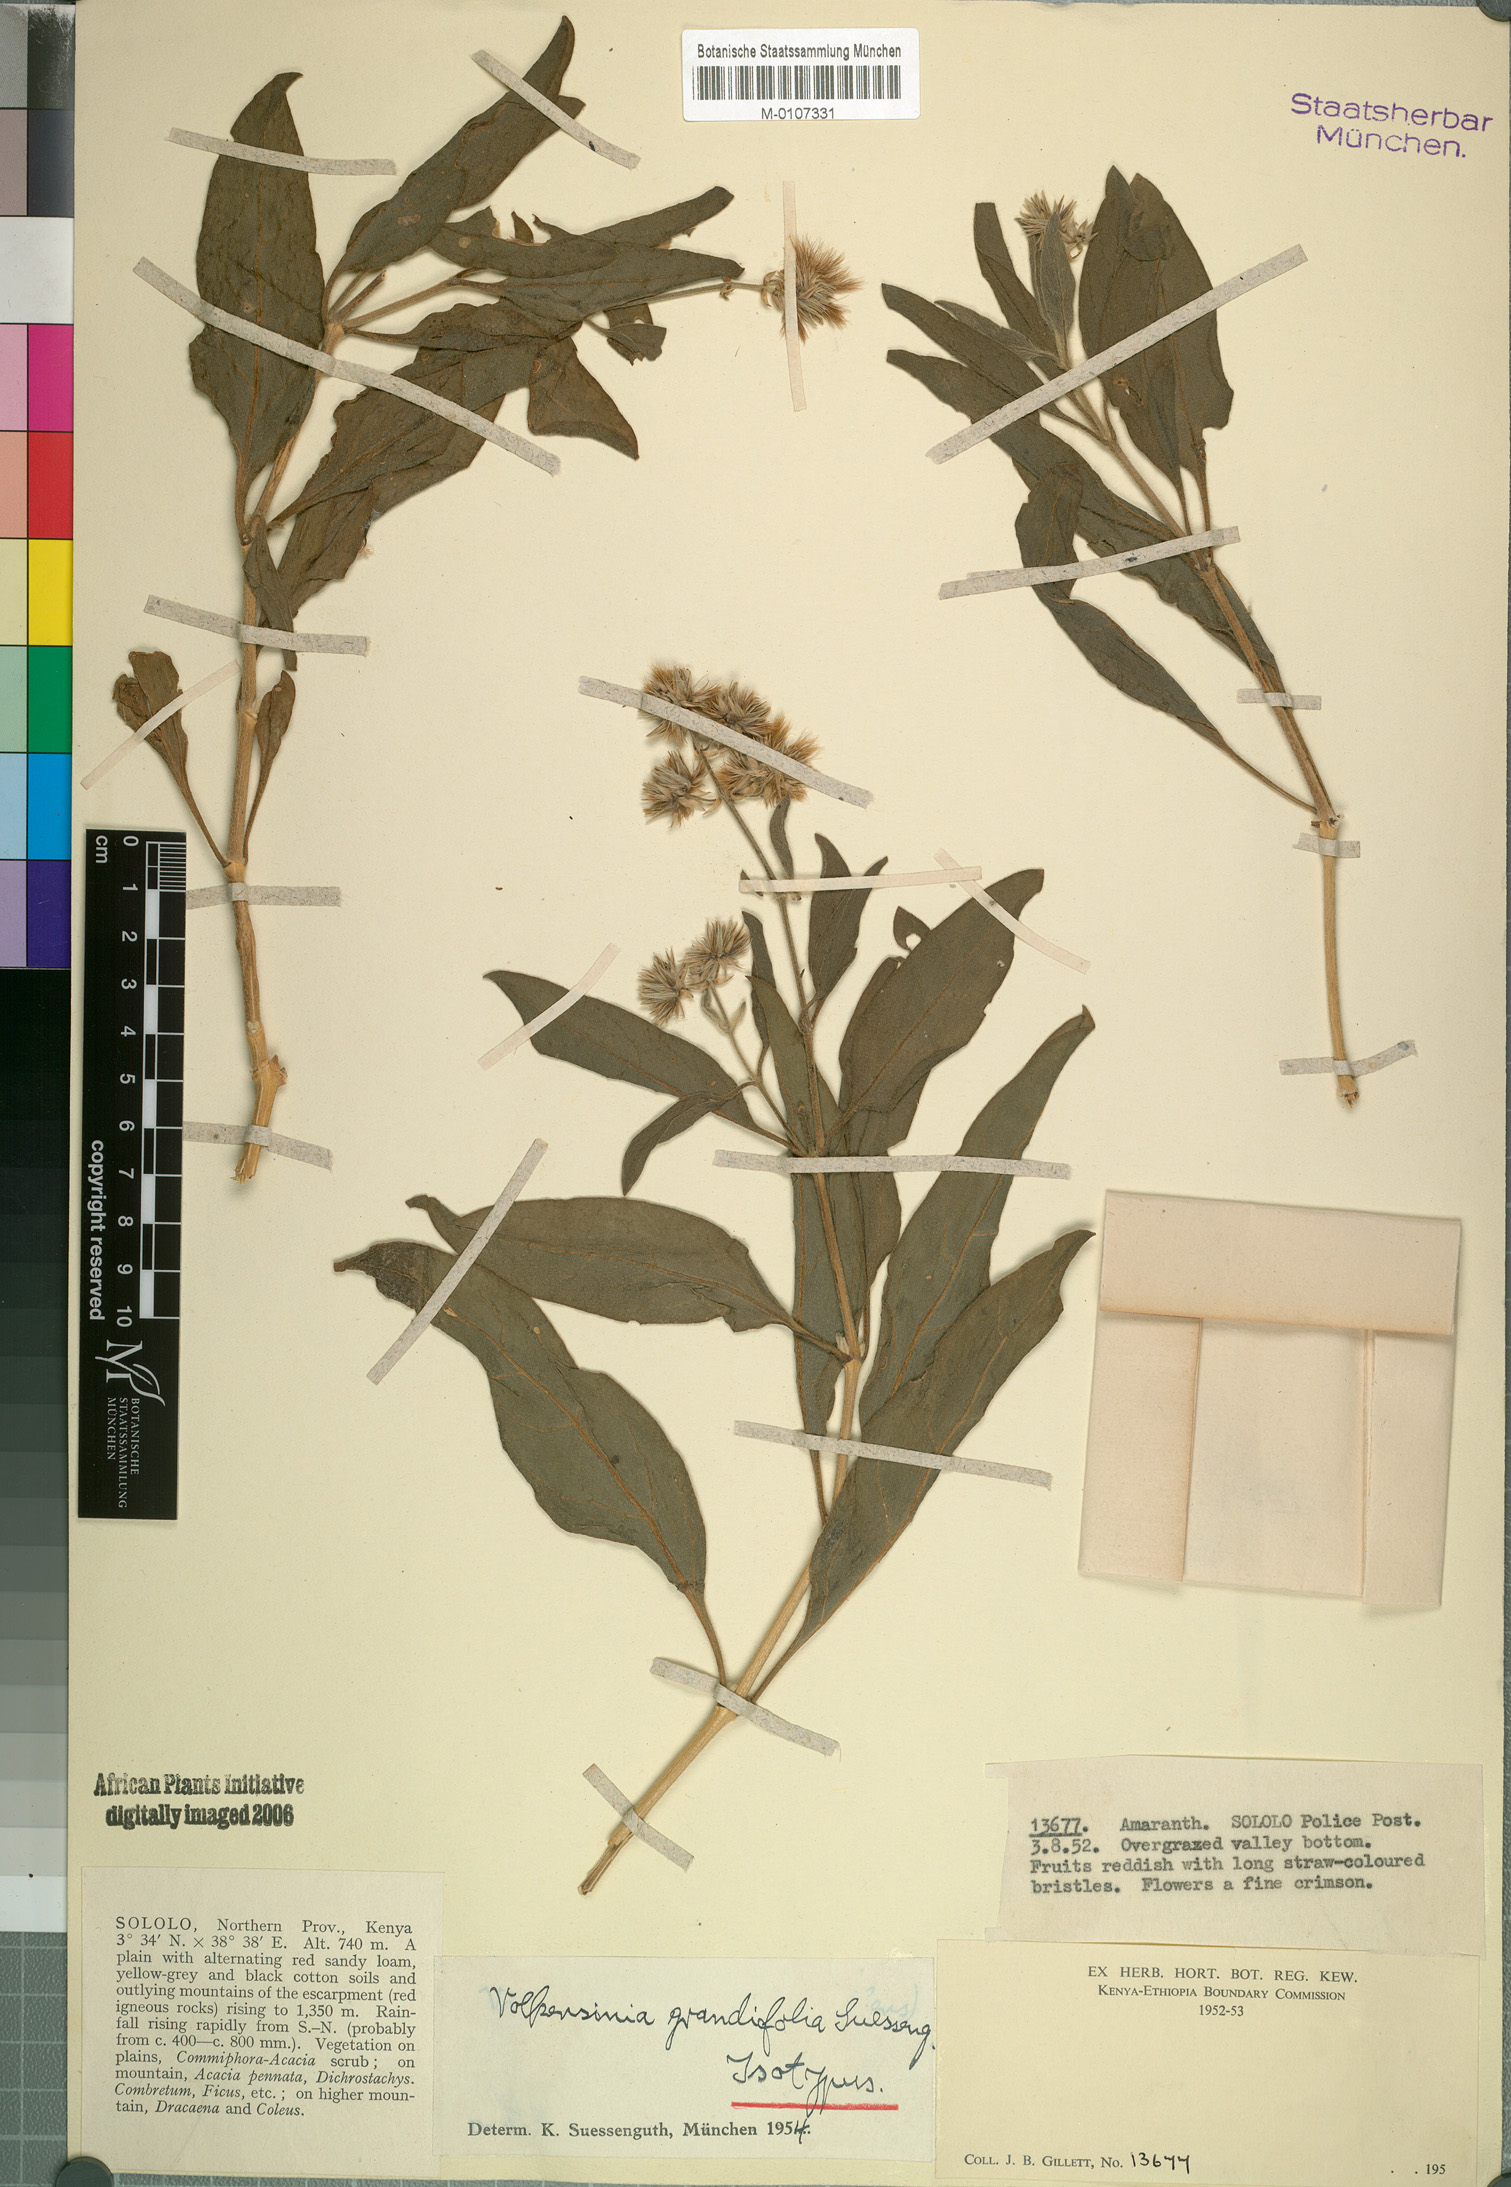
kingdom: Plantae
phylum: Tracheophyta
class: Magnoliopsida
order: Caryophyllales
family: Amaranthaceae
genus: Volkensinia
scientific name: Volkensinia prostrata
